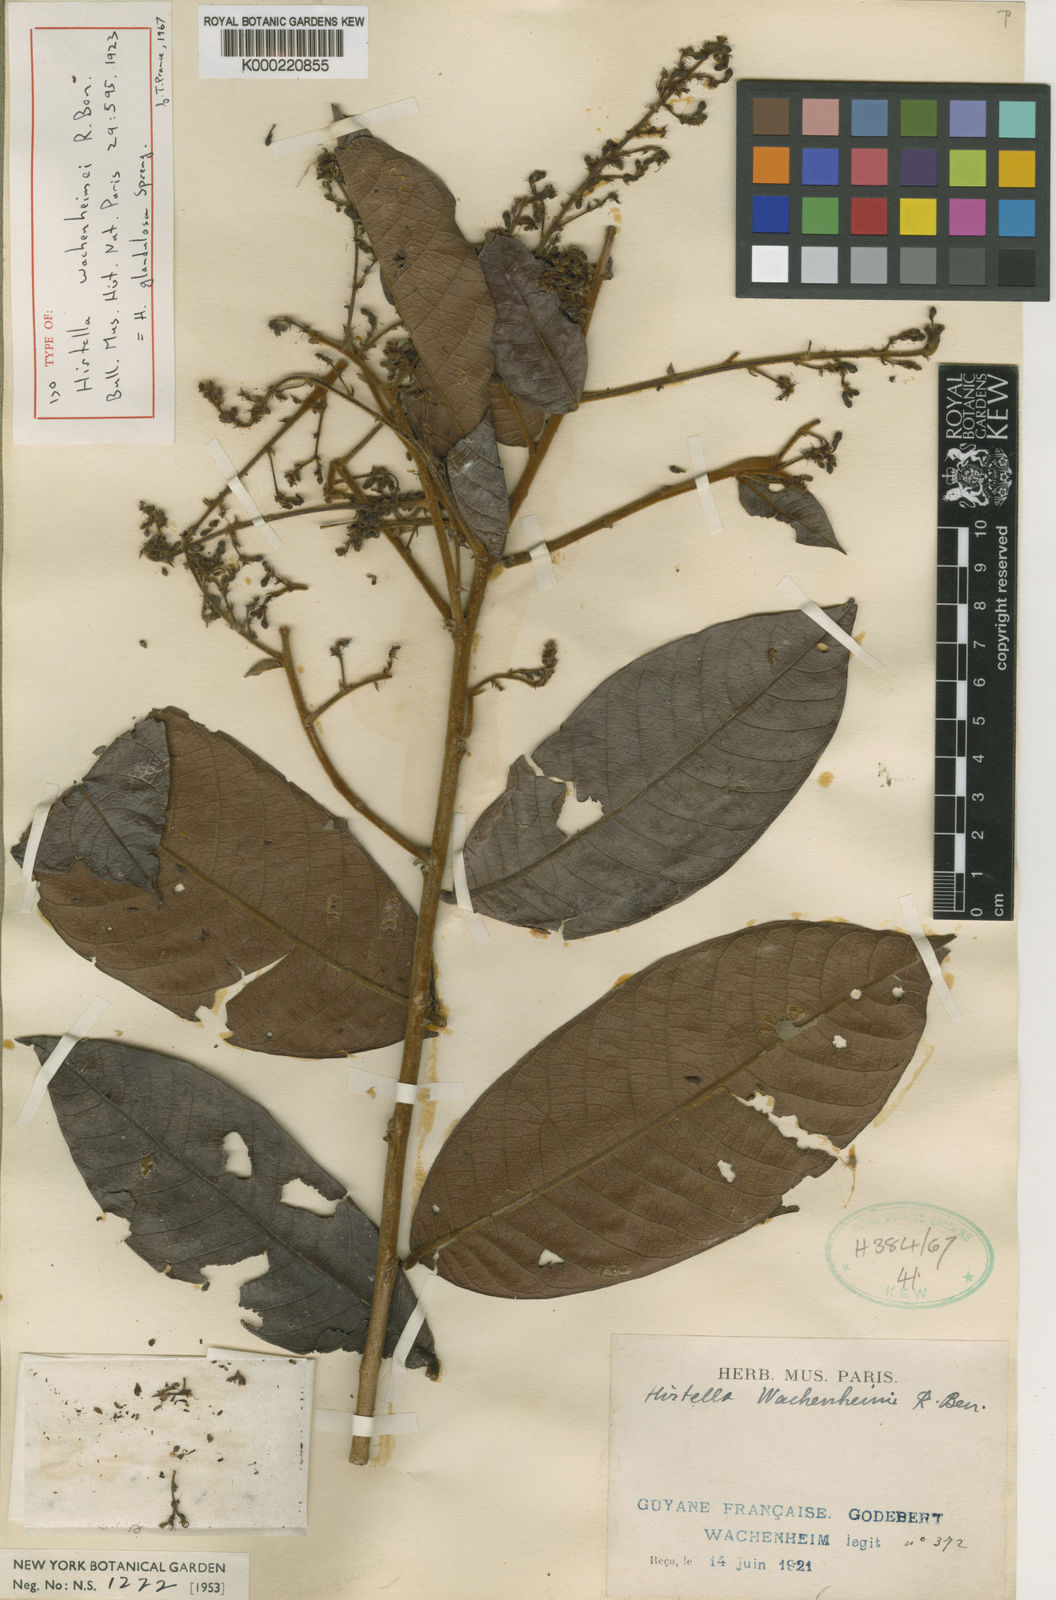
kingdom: Plantae
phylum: Tracheophyta
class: Magnoliopsida
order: Malpighiales
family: Chrysobalanaceae
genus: Hirtella
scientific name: Hirtella glandulosa
